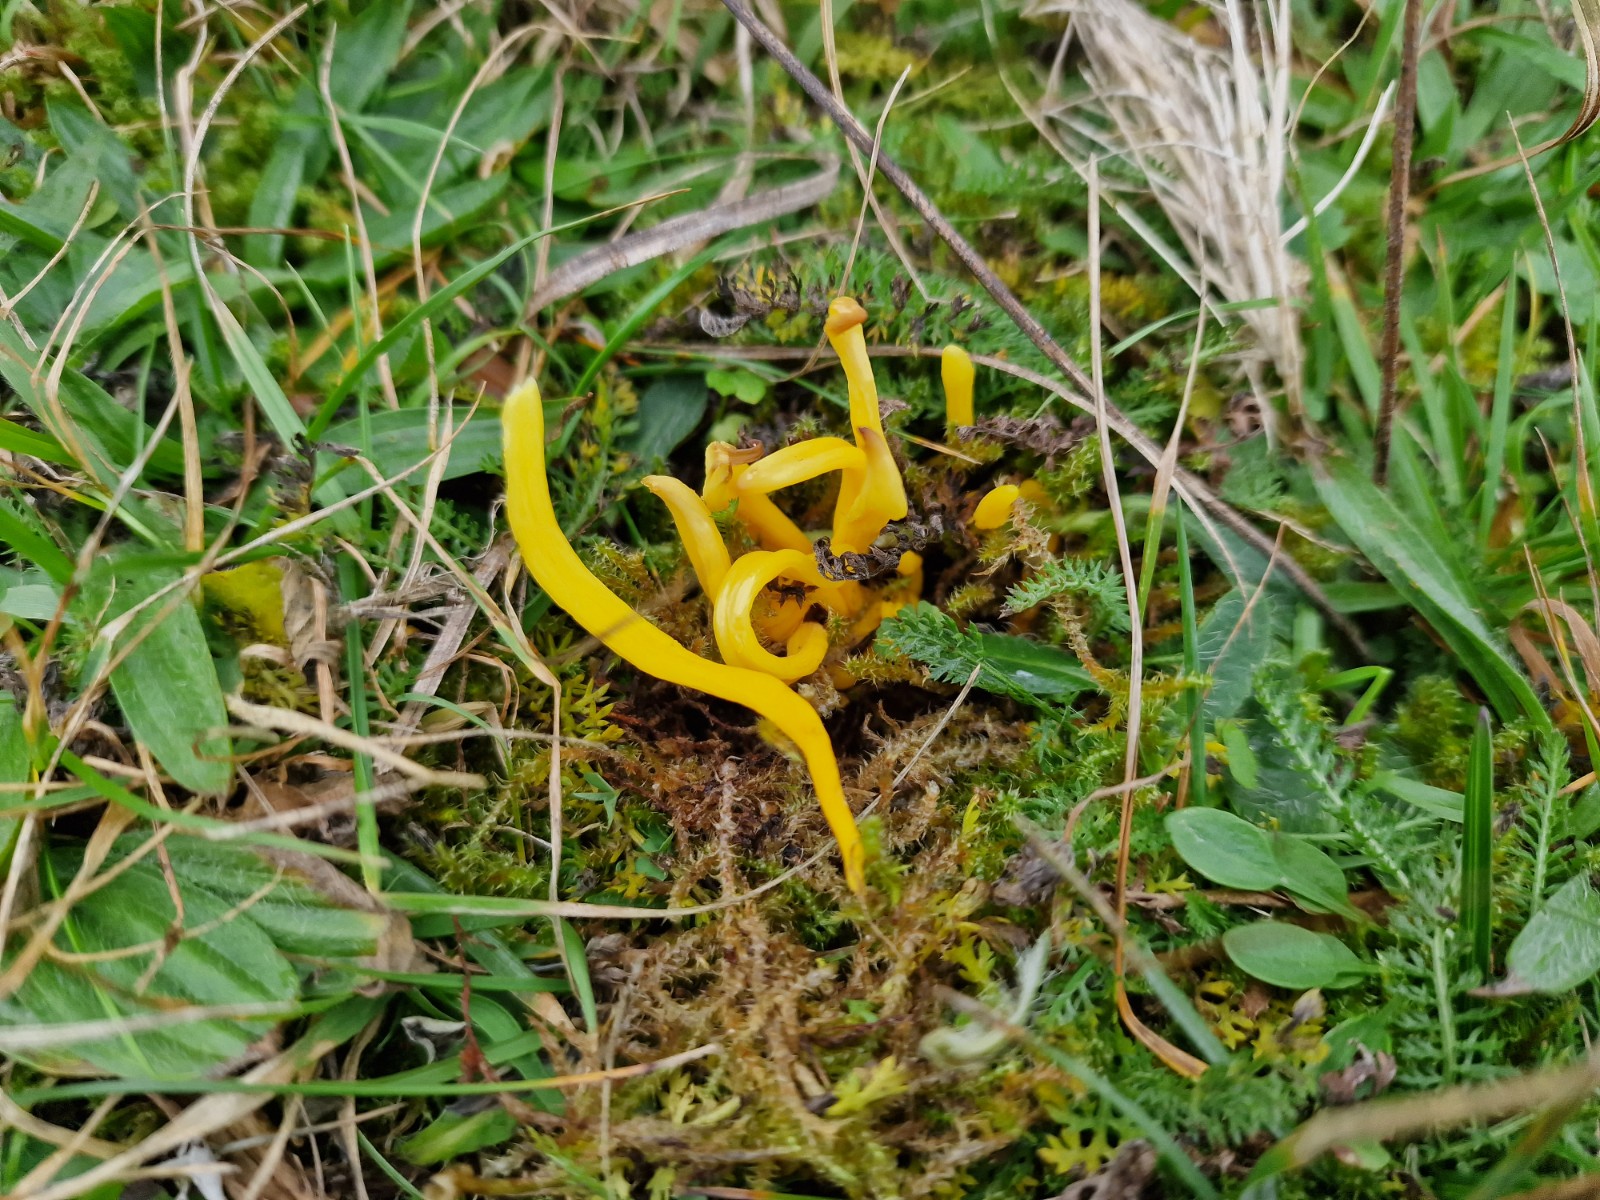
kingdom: Fungi
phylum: Basidiomycota
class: Agaricomycetes
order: Agaricales
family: Clavariaceae
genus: Clavulinopsis
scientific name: Clavulinopsis helvola
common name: orangegul køllesvamp
